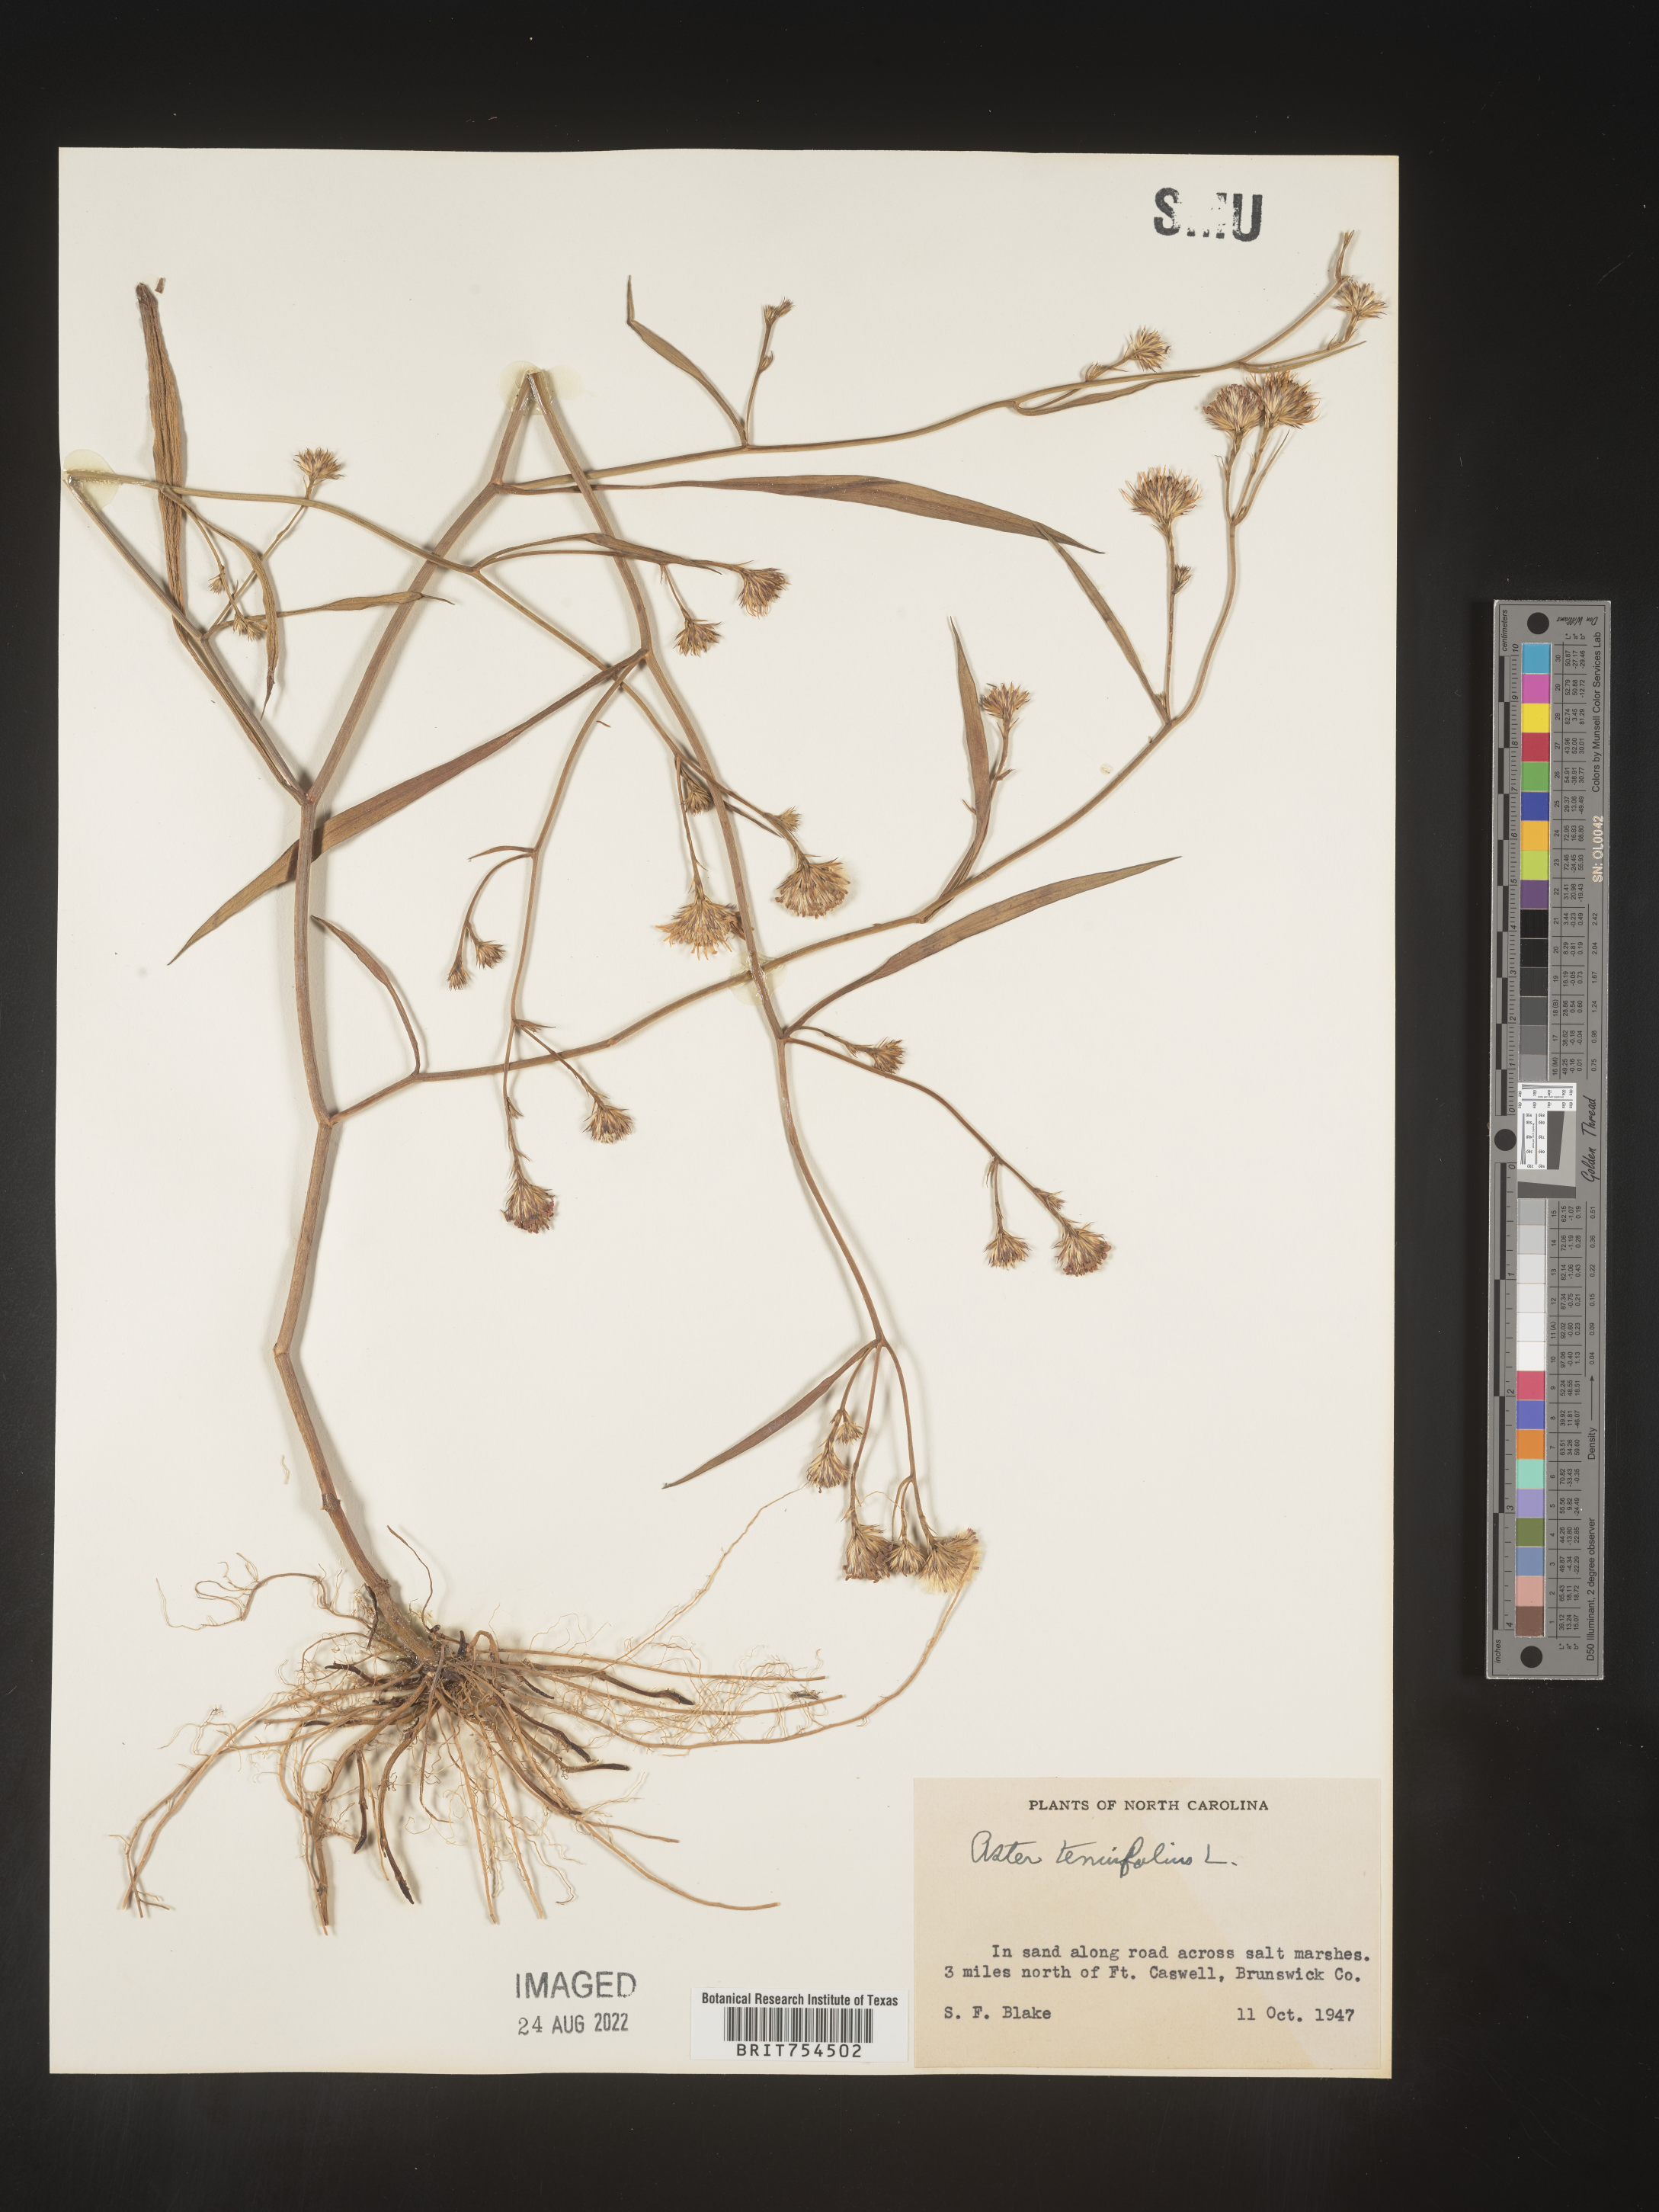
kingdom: Plantae
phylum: Tracheophyta
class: Magnoliopsida
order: Asterales
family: Asteraceae
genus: Symphyotrichum
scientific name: Symphyotrichum tenuifolium
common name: Perennial salt-marsh aster
